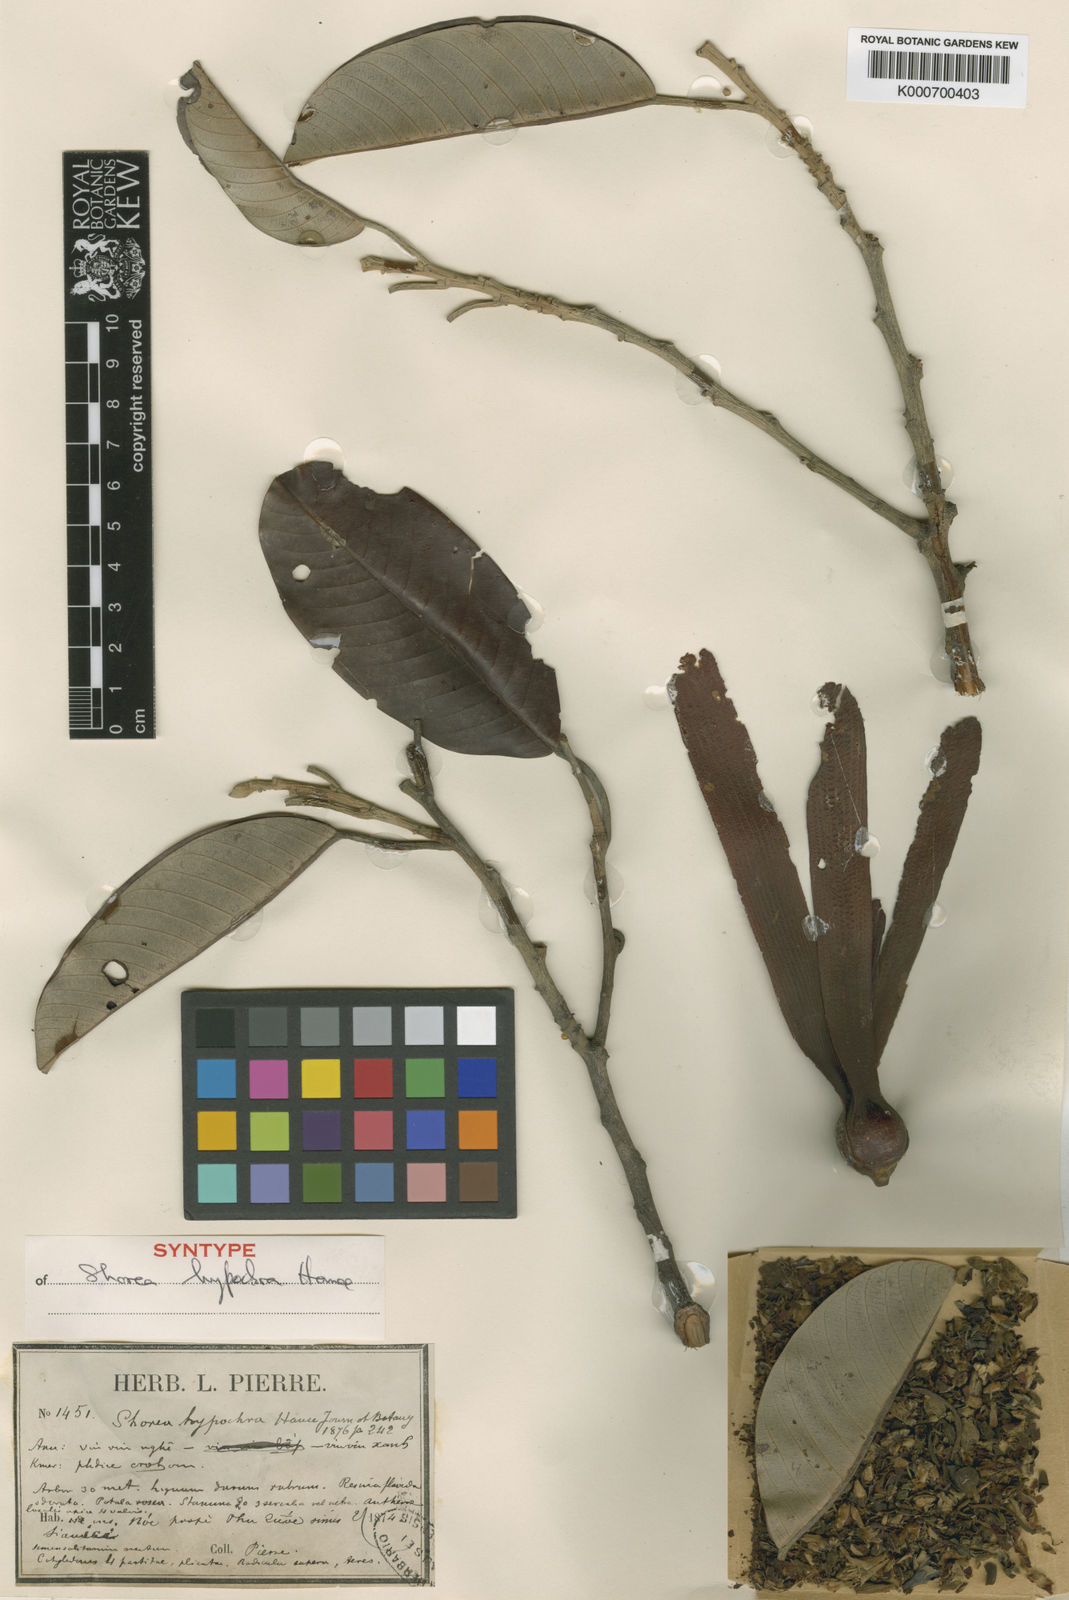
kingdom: Plantae
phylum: Tracheophyta
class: Magnoliopsida
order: Malvales
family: Dipterocarpaceae
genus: Anthoshorea
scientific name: Anthoshorea hypochra
